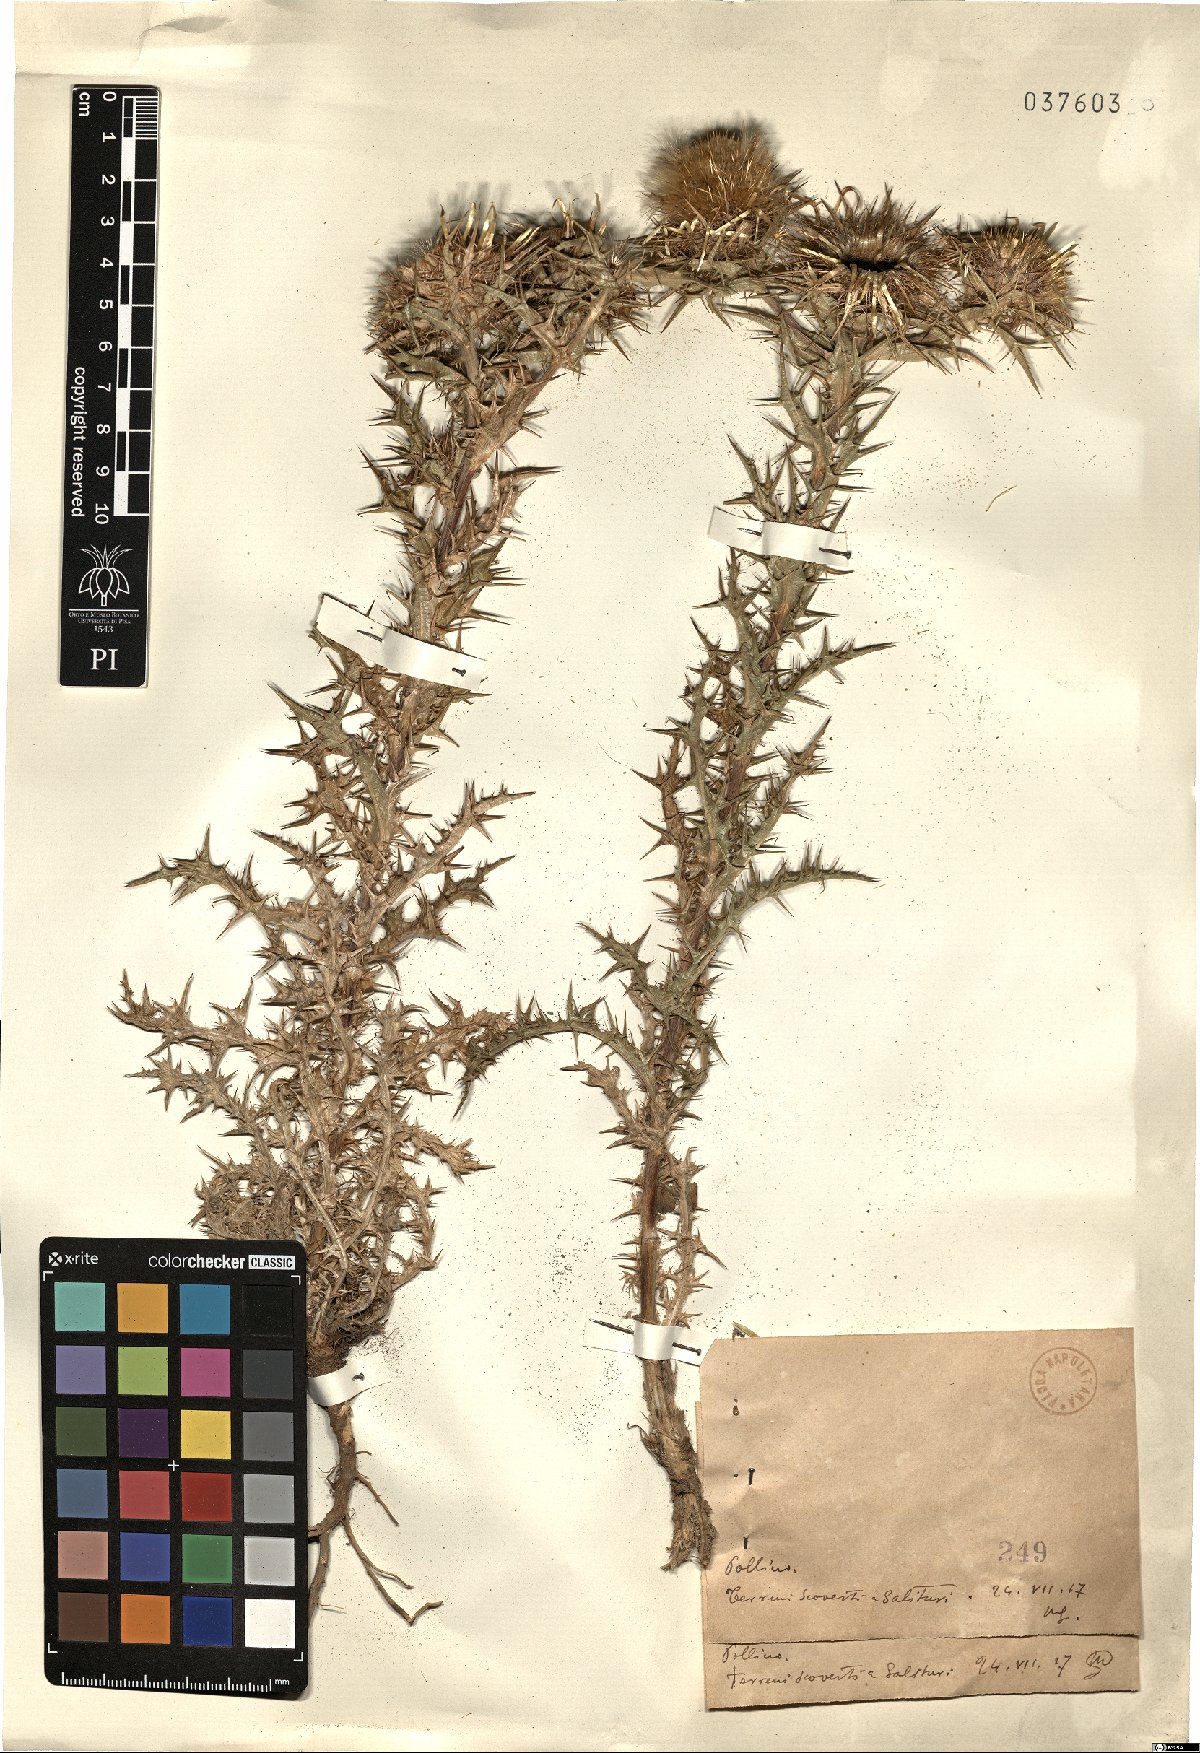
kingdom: Plantae
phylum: Tracheophyta
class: Magnoliopsida
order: Asterales
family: Asteraceae
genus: Carlina
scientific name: Carlina
